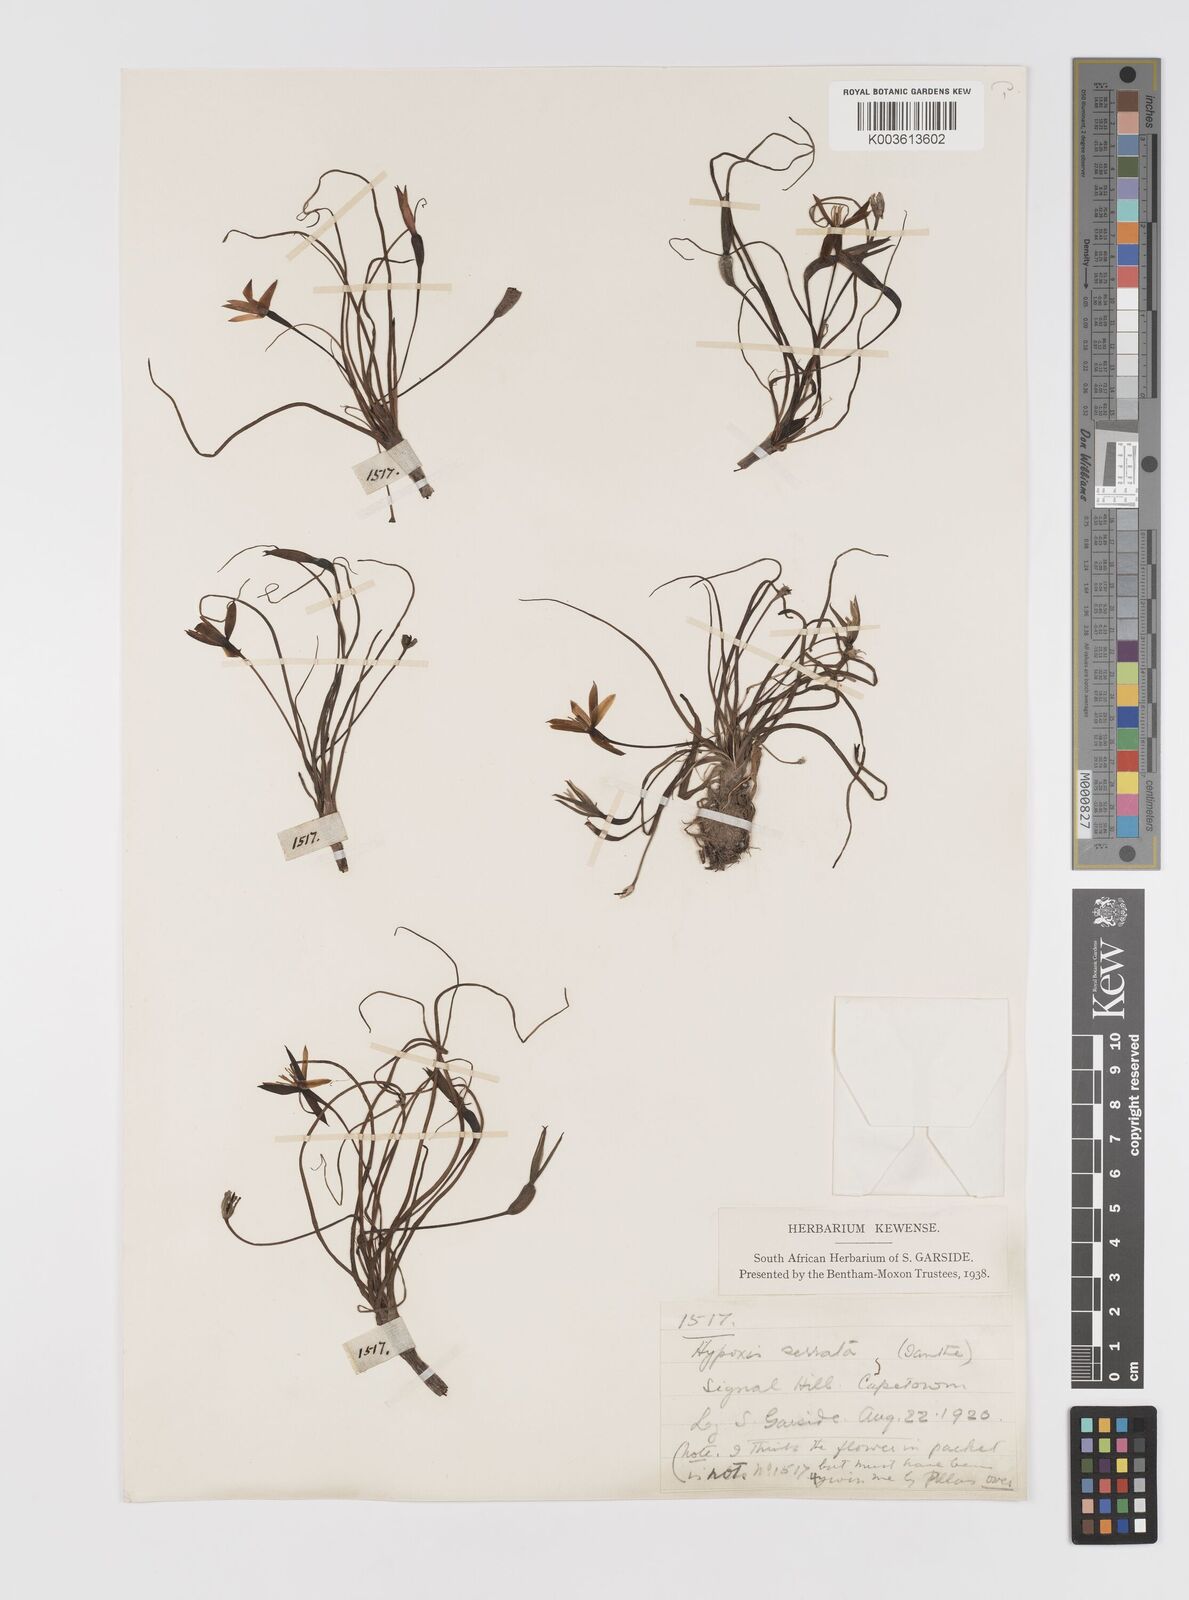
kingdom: Plantae
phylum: Tracheophyta
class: Liliopsida
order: Asparagales
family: Hypoxidaceae
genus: Pauridia
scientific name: Pauridia serrata
